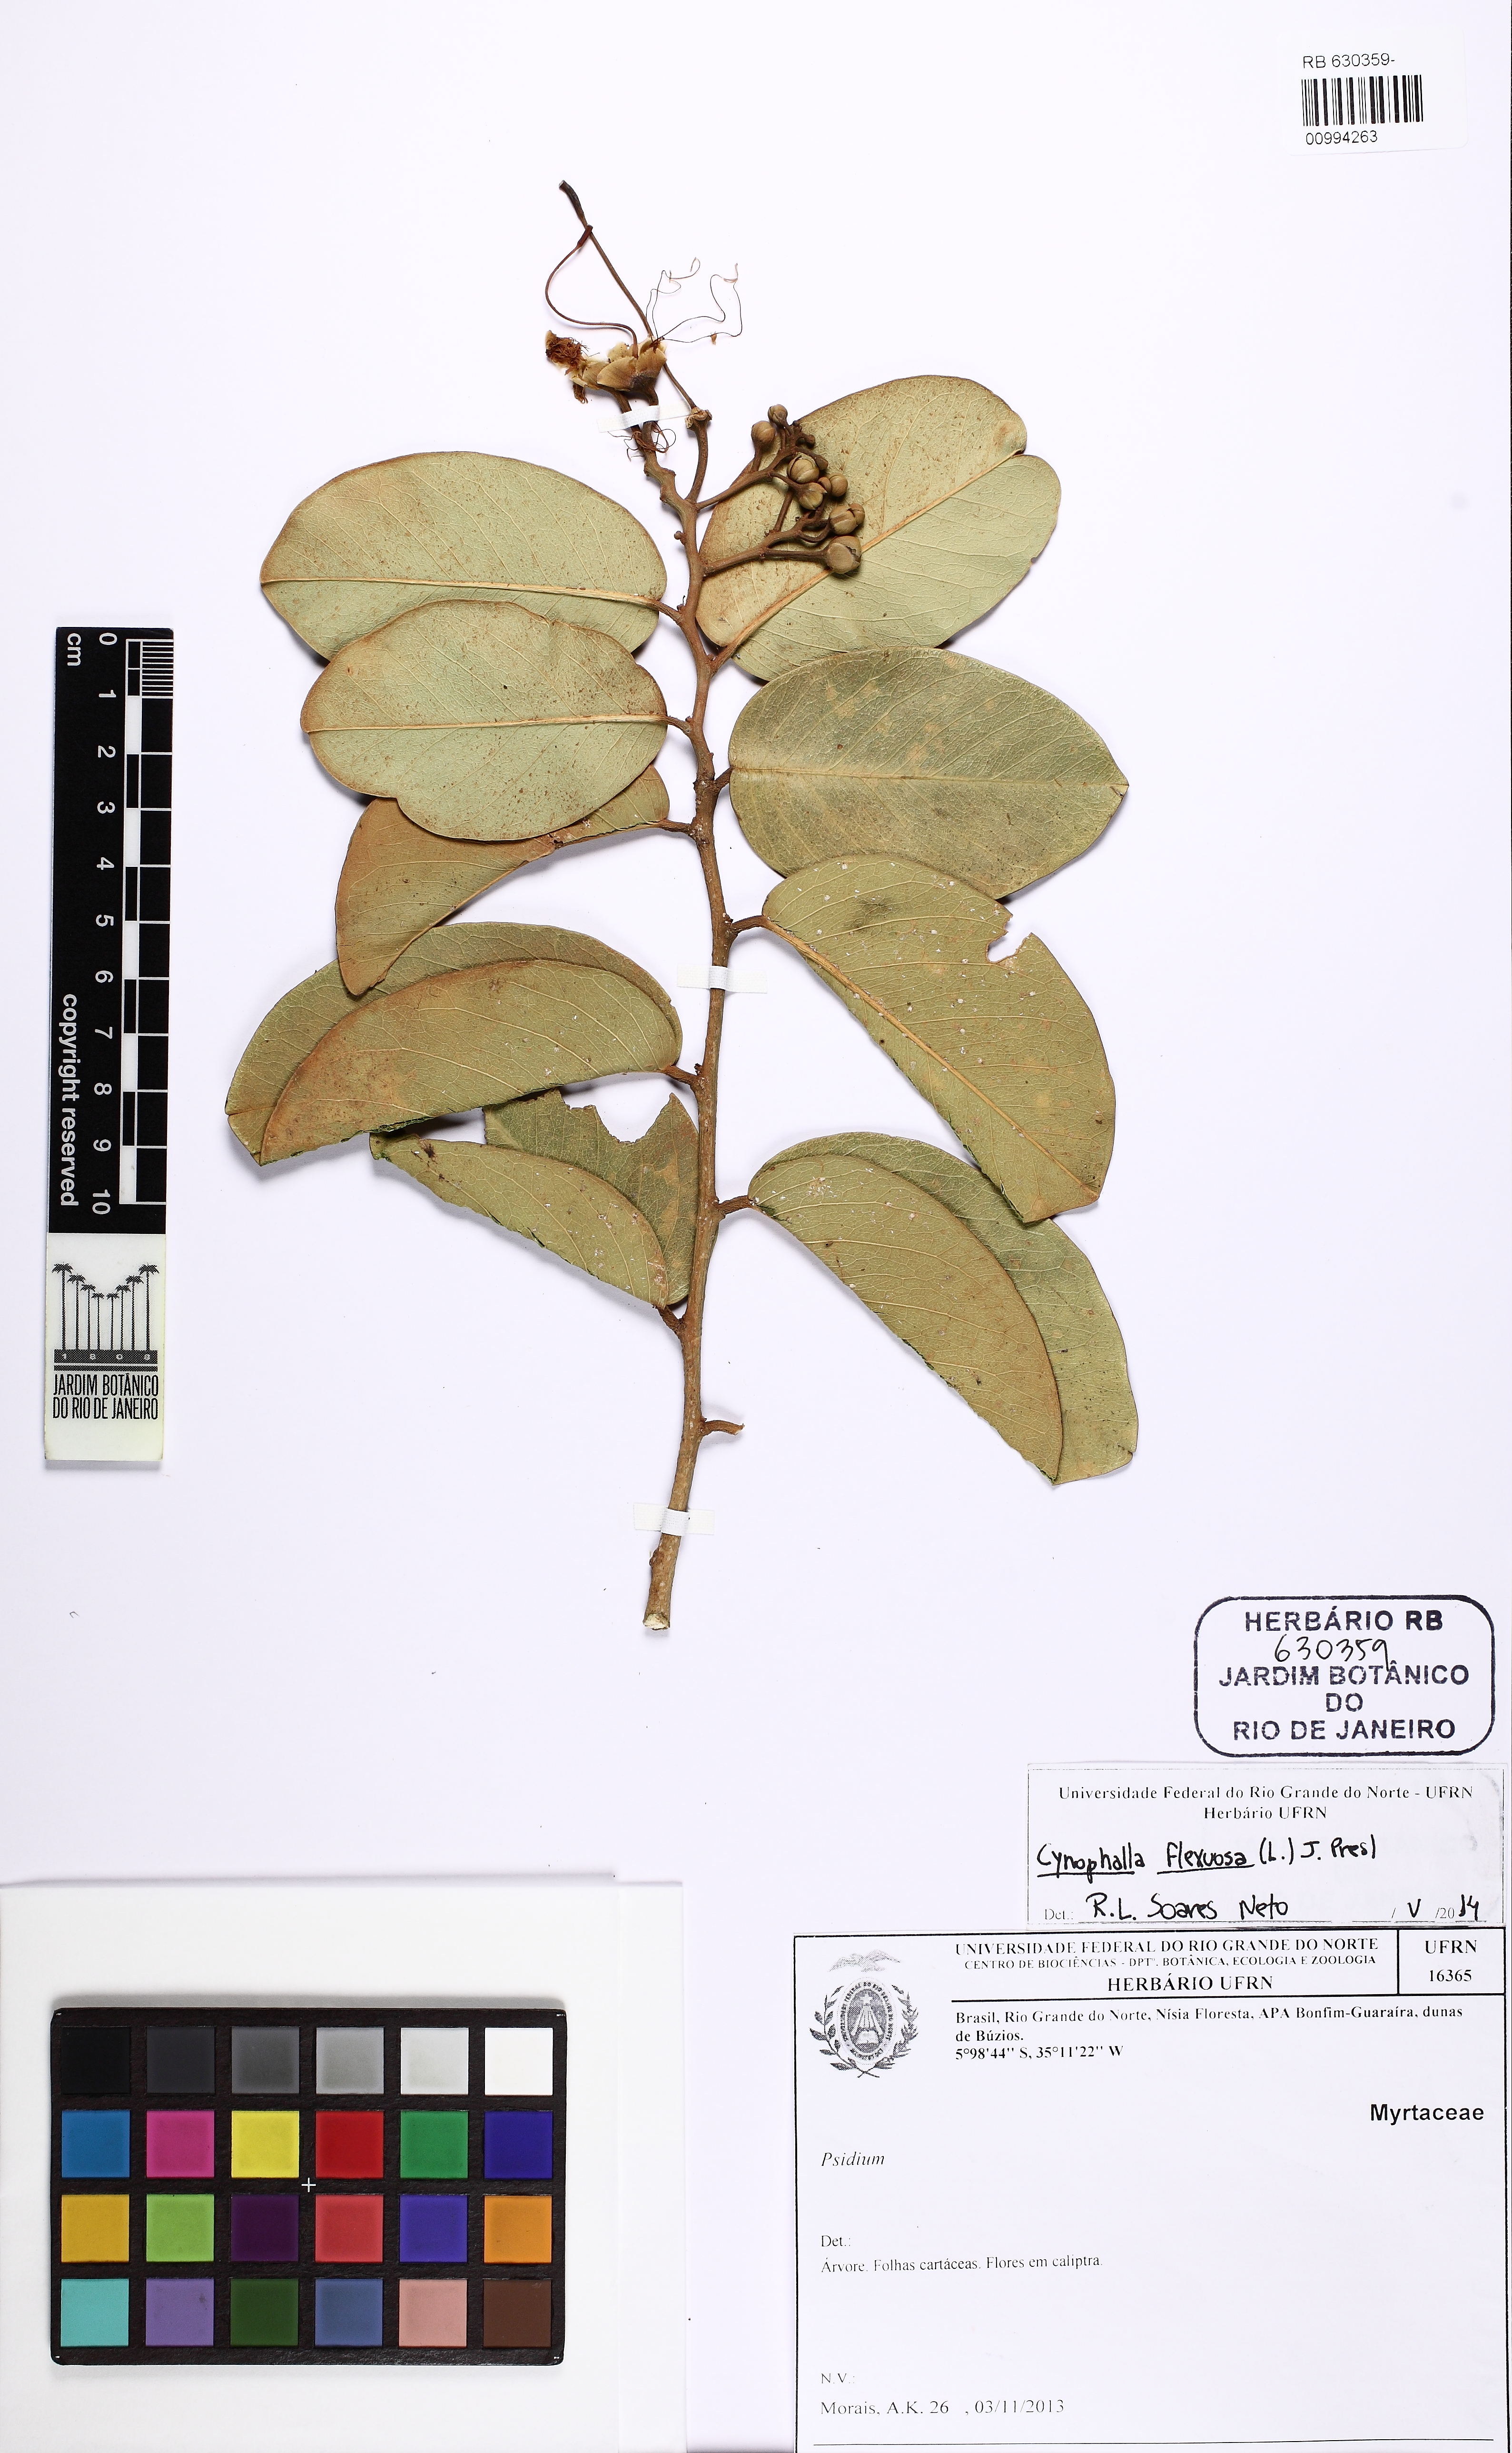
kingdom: Plantae
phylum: Tracheophyta
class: Magnoliopsida
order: Brassicales
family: Capparaceae
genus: Cynophalla
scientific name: Cynophalla flexuosa
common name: Capertree
